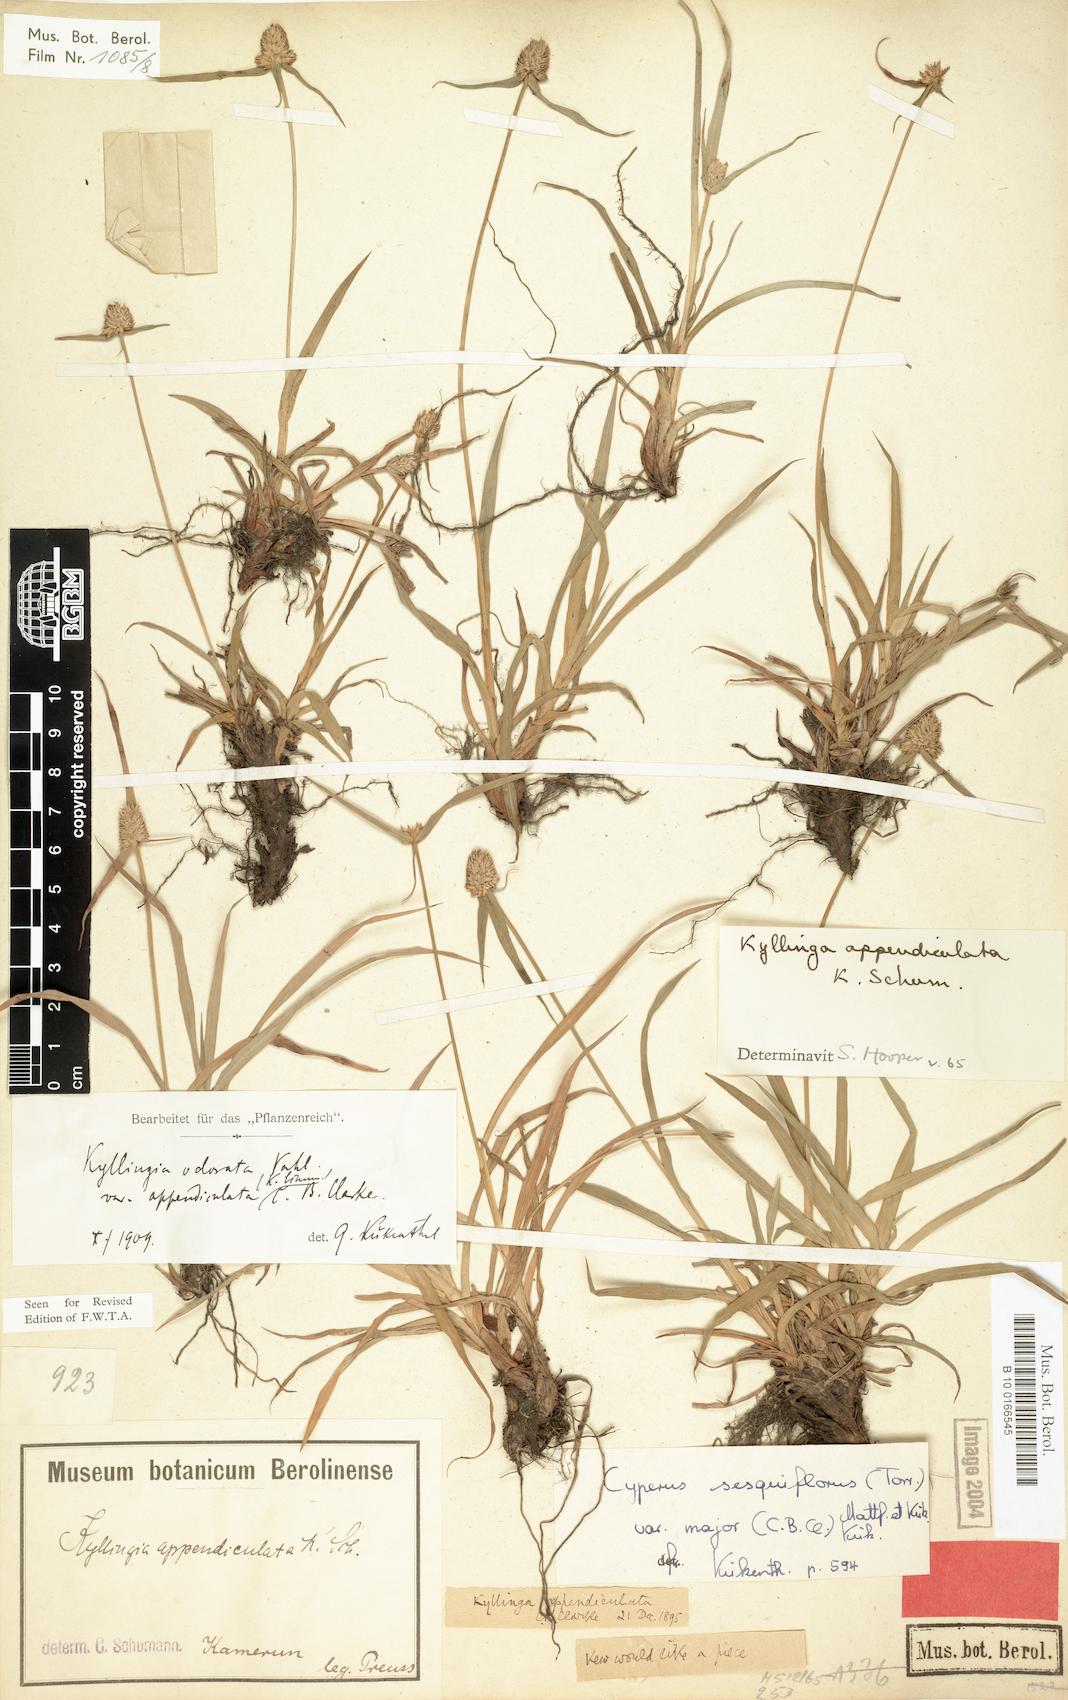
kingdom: Plantae
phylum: Tracheophyta
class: Liliopsida
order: Poales
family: Cyperaceae
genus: Cyperus
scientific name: Cyperus sesquiflorus
